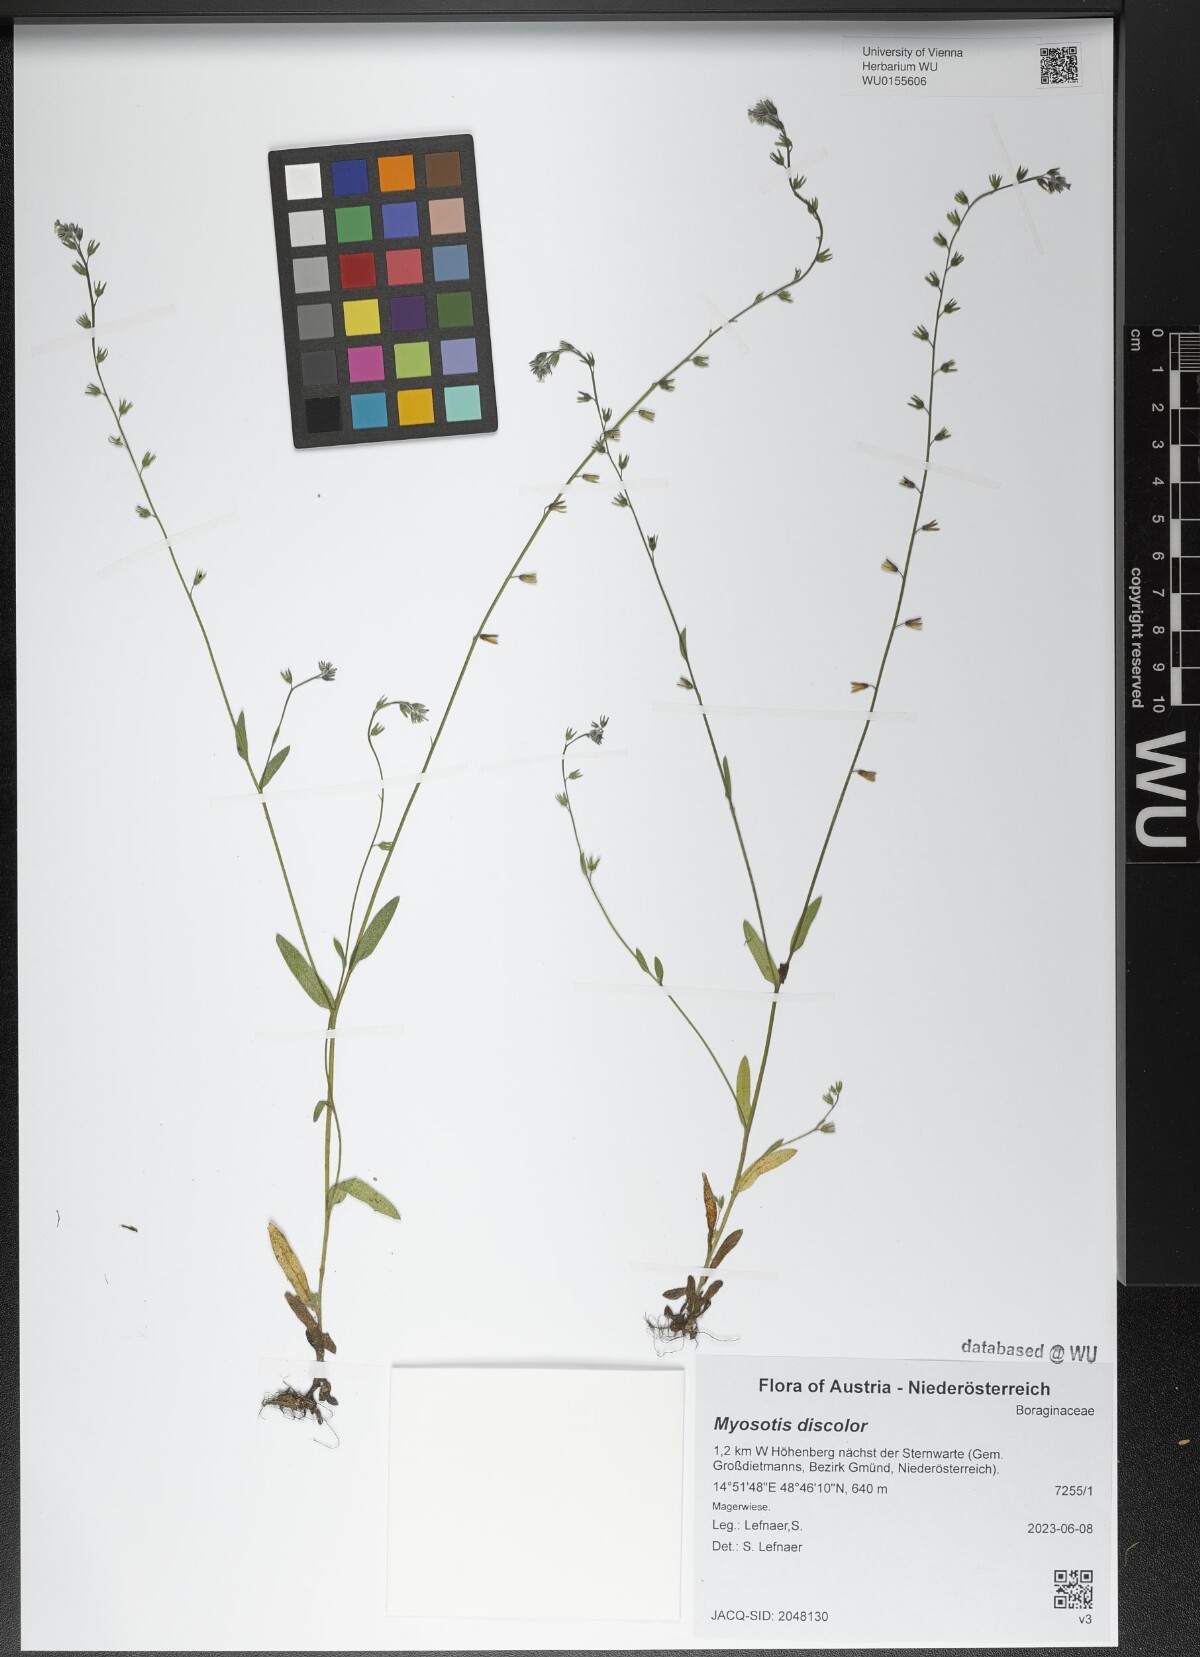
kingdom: Plantae
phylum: Tracheophyta
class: Magnoliopsida
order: Boraginales
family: Boraginaceae
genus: Myosotis
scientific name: Myosotis discolor
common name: Changing forget-me-not
